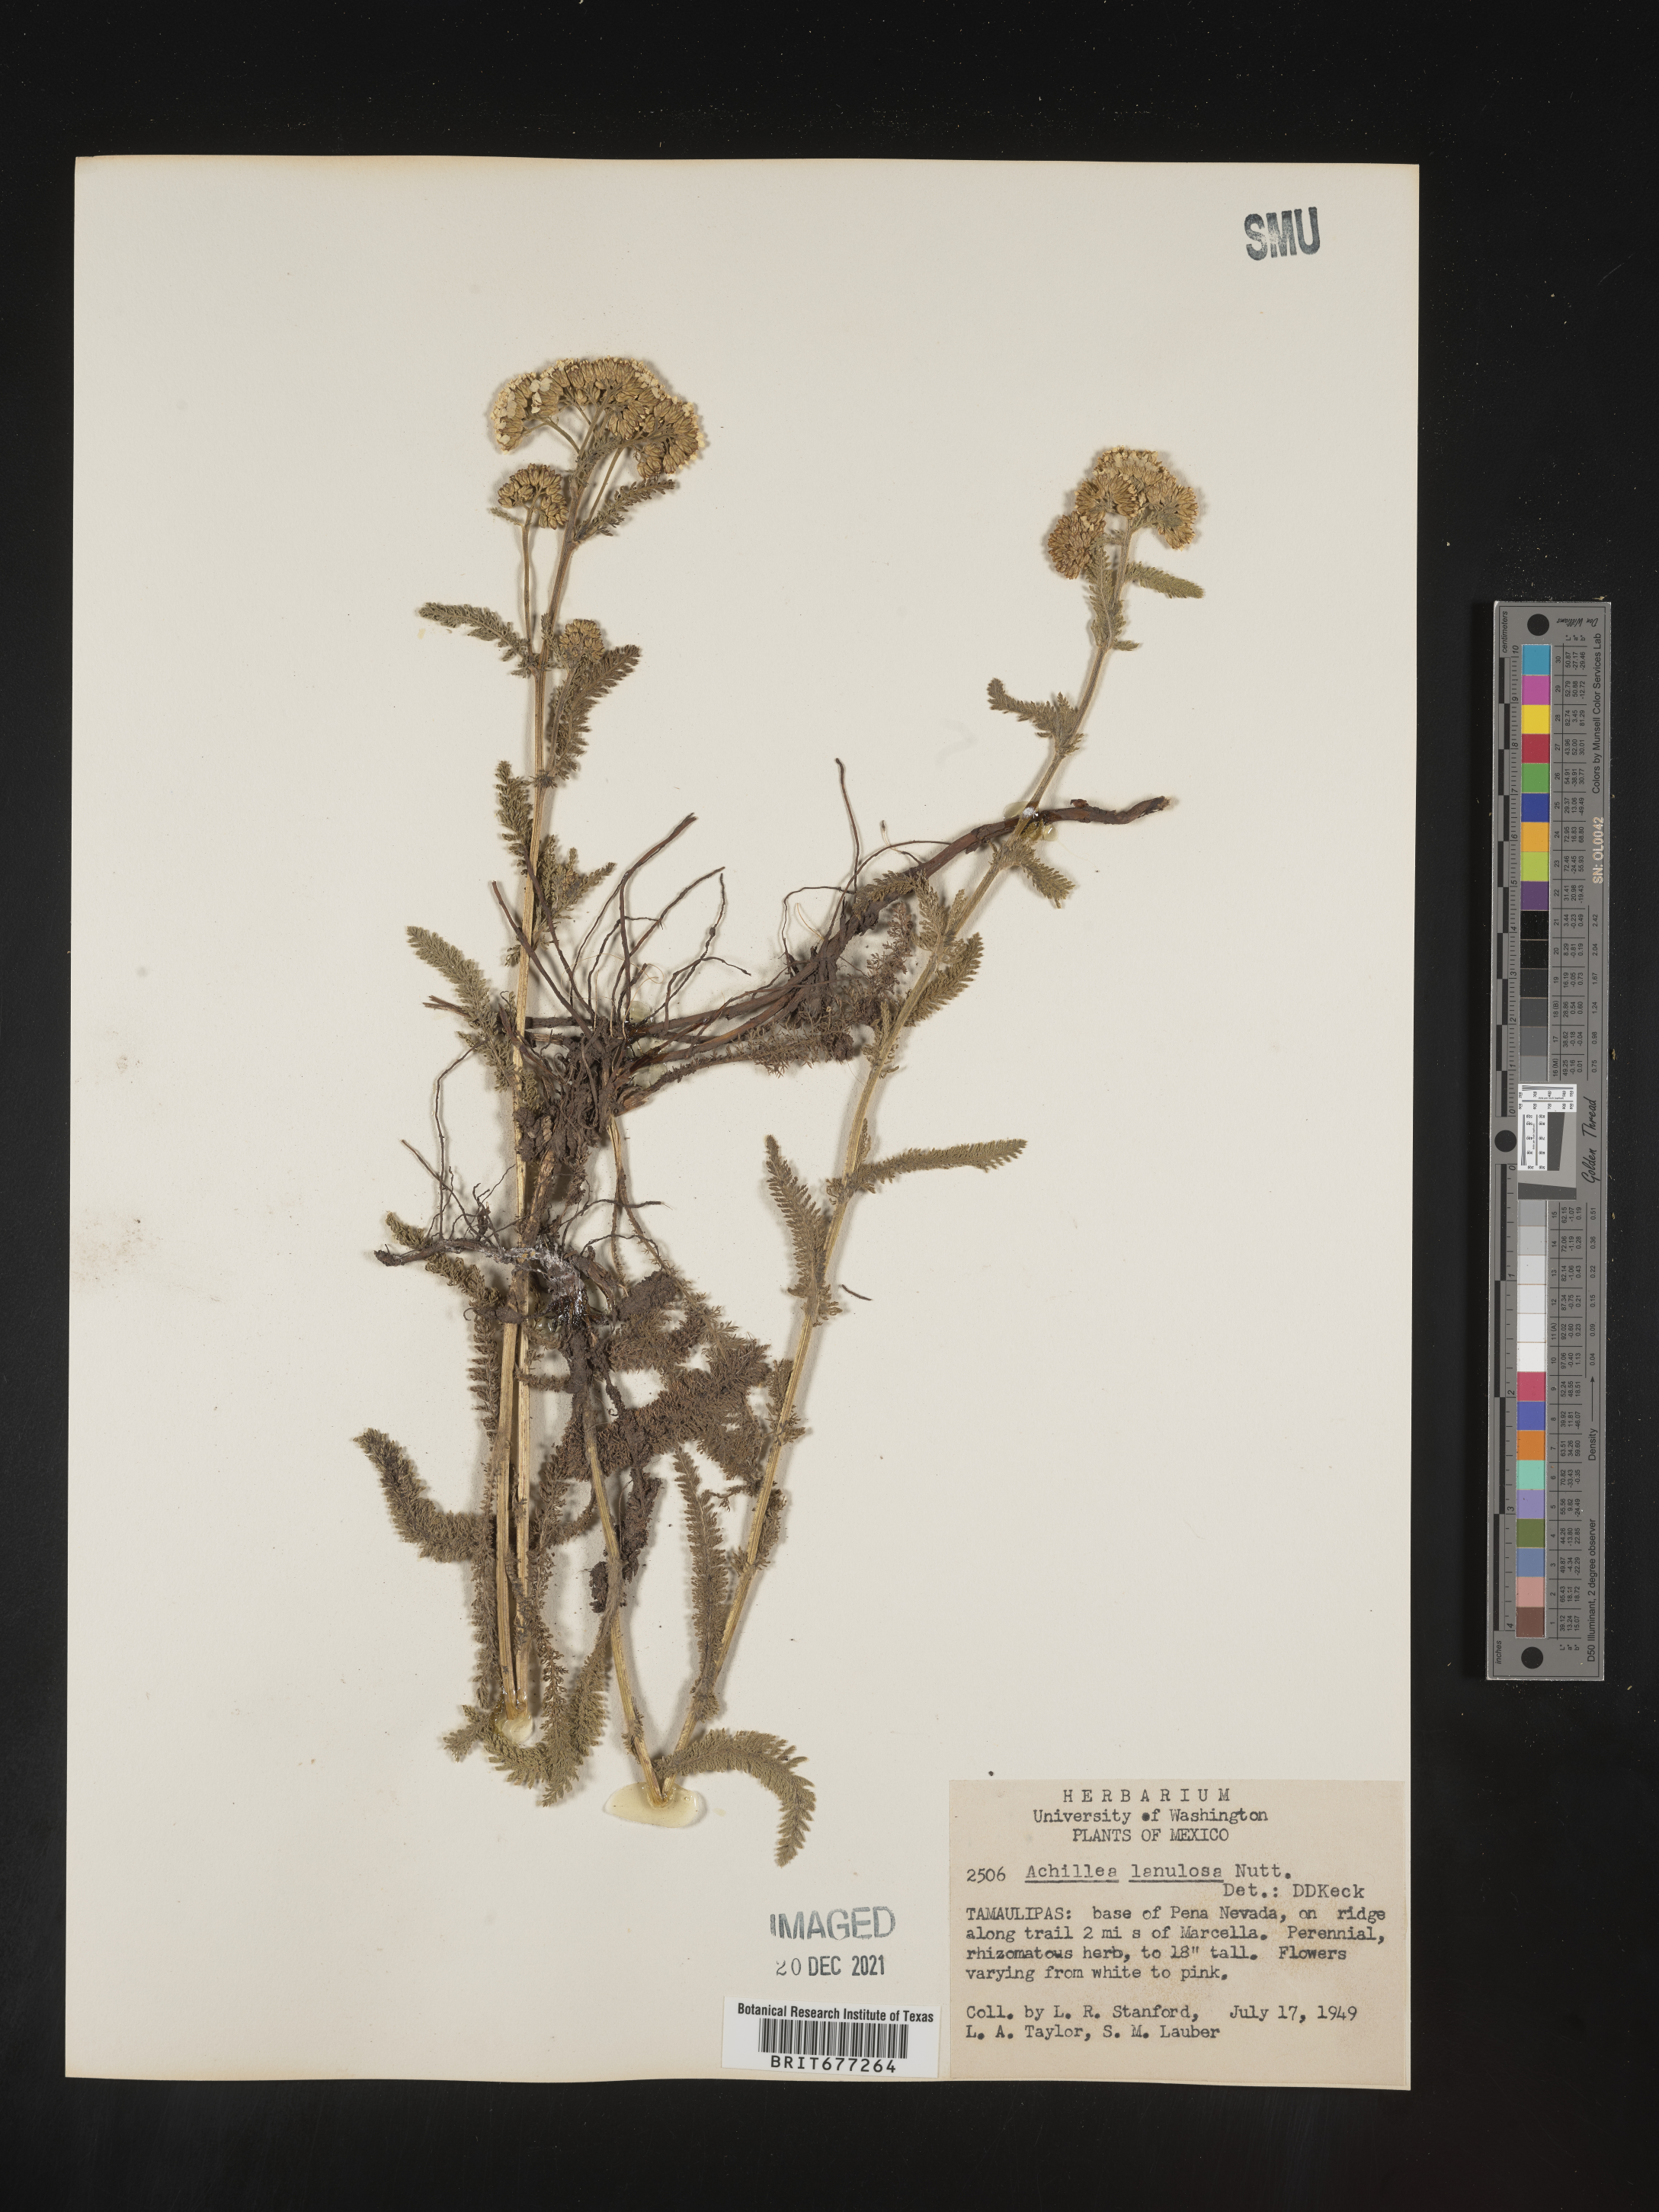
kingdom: Plantae
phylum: Tracheophyta
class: Magnoliopsida
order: Asterales
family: Asteraceae
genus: Achillea
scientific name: Achillea
